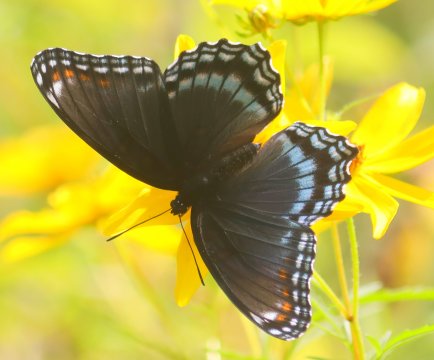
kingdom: Animalia
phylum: Arthropoda
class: Insecta
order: Lepidoptera
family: Nymphalidae
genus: Limenitis
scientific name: Limenitis arthemis
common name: Red-spotted Admiral
